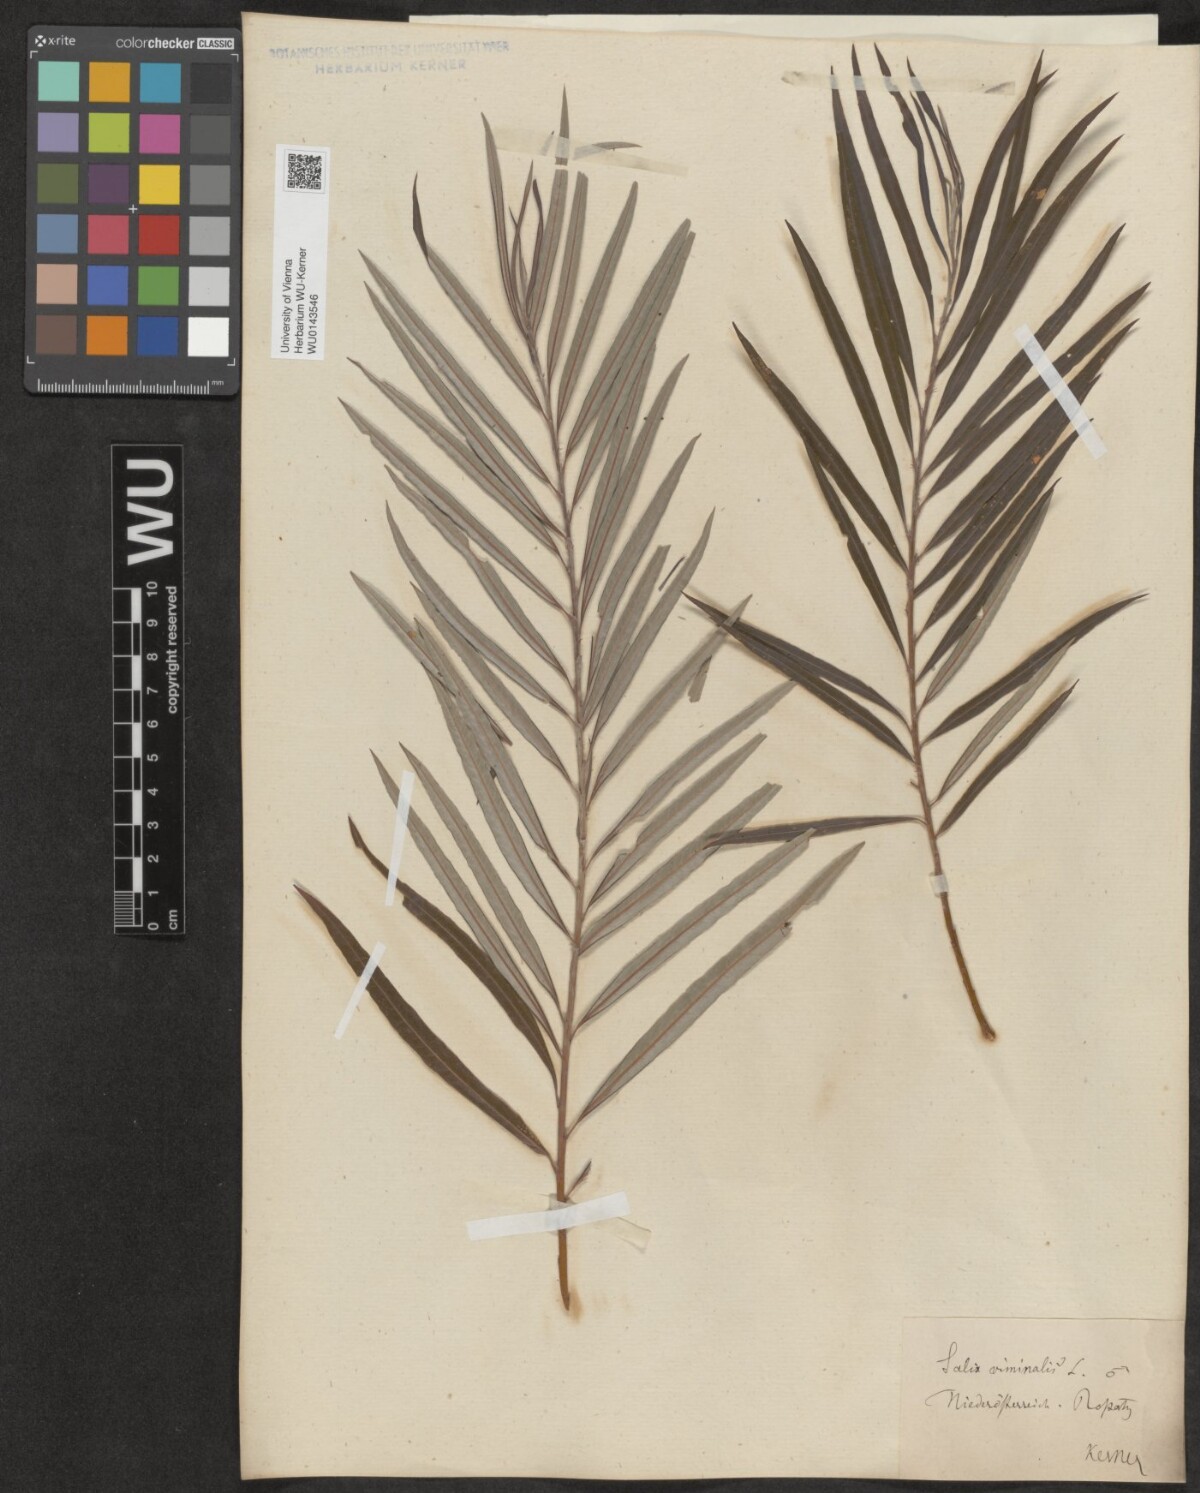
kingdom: Plantae
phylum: Tracheophyta
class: Magnoliopsida
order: Malpighiales
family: Salicaceae
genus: Salix
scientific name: Salix viminalis
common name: Osier
